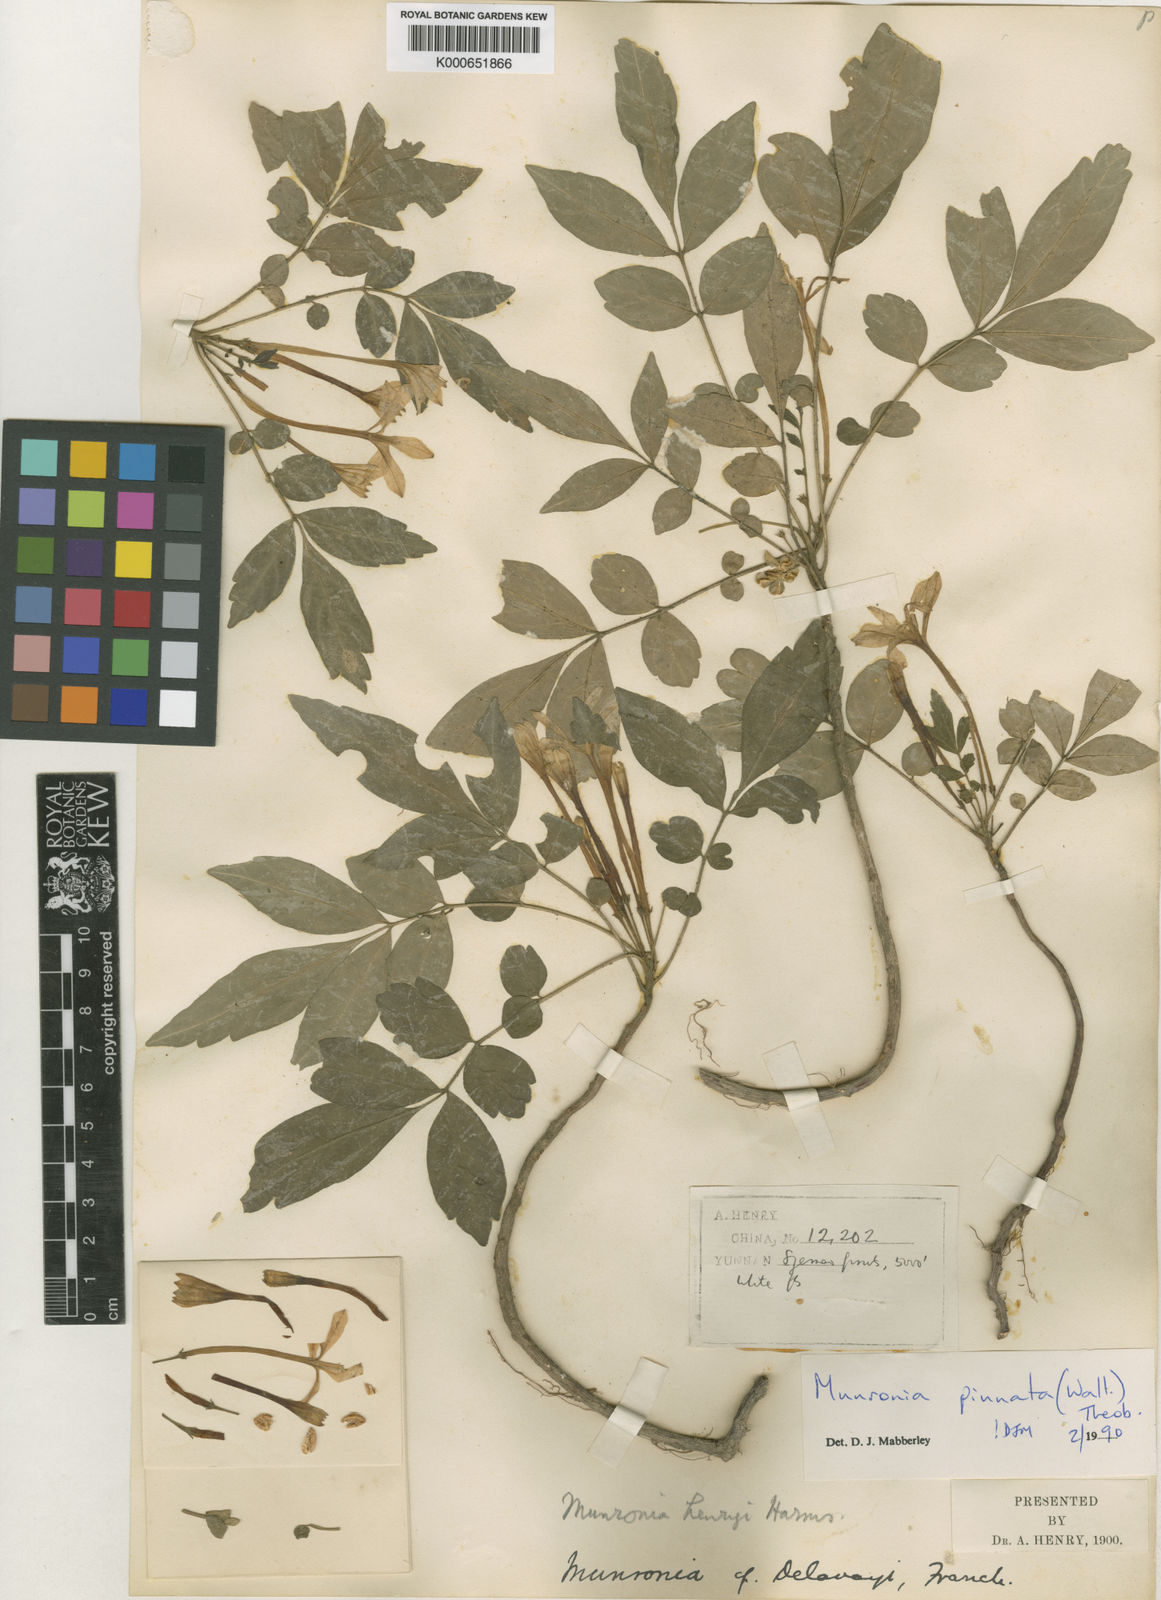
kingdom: Plantae
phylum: Tracheophyta
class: Magnoliopsida
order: Sapindales
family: Meliaceae
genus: Munronia
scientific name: Munronia pinnata
